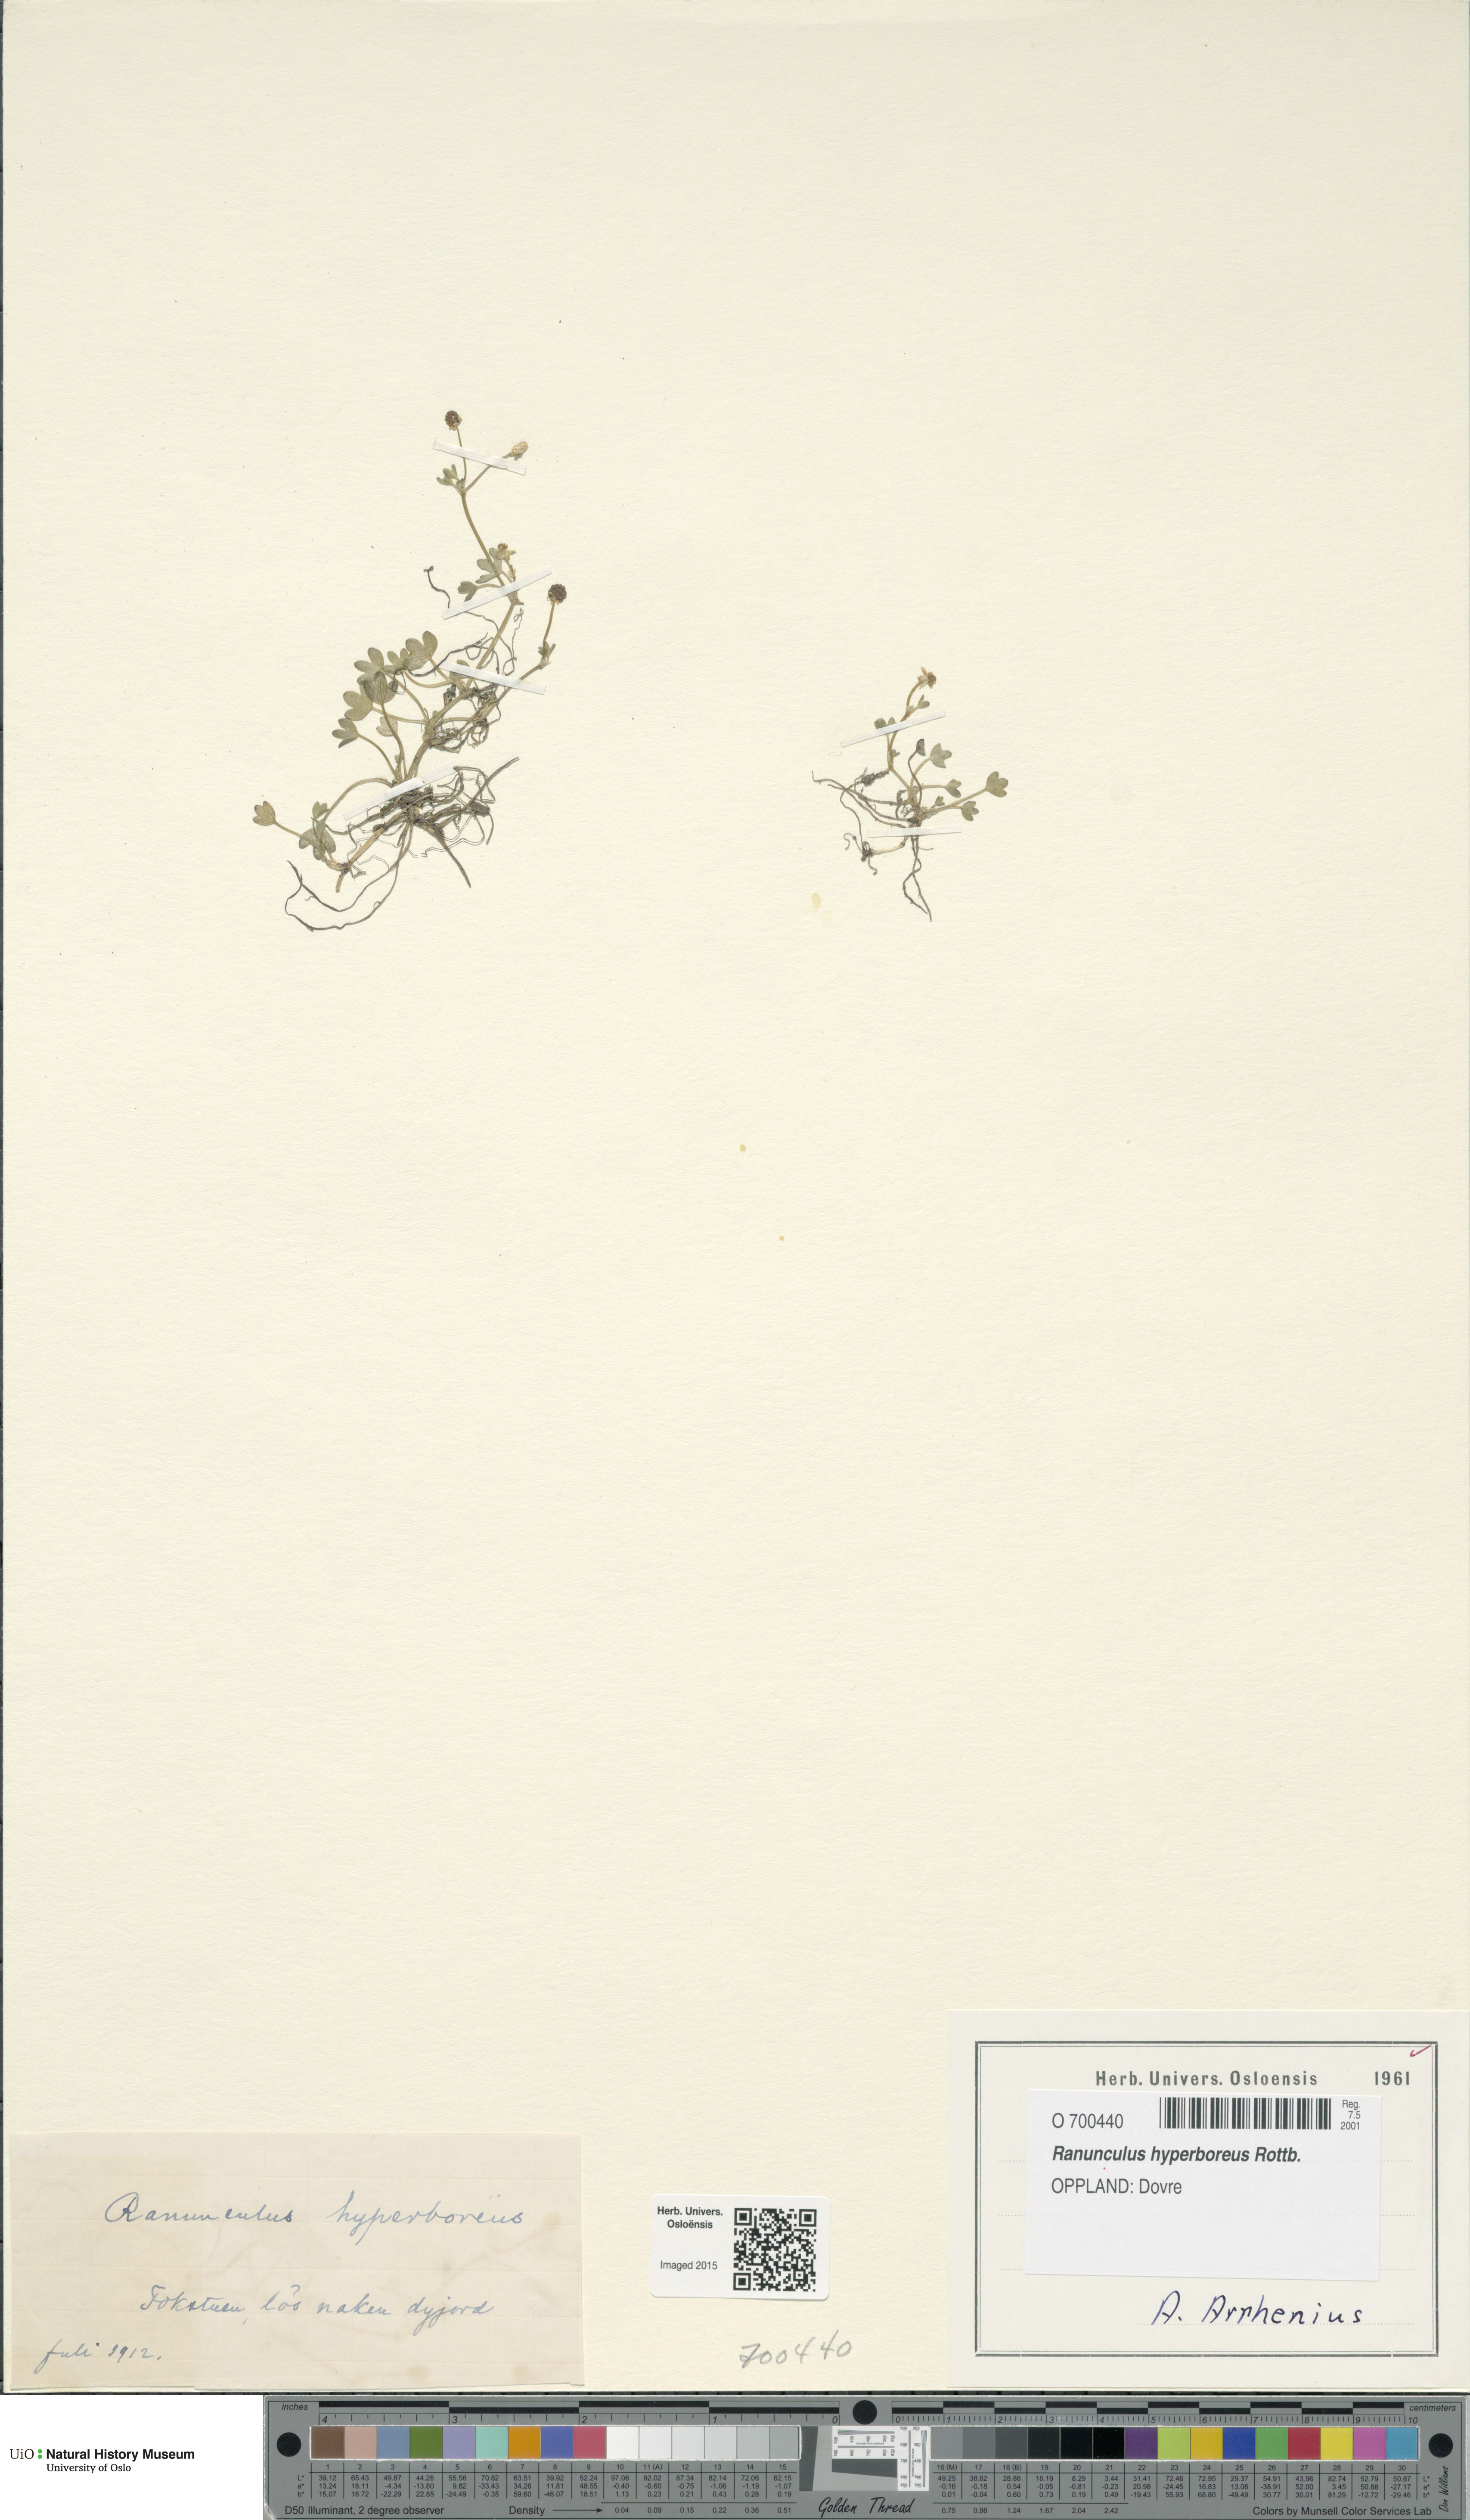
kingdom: Plantae
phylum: Tracheophyta
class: Magnoliopsida
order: Ranunculales
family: Ranunculaceae
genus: Ranunculus
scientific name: Ranunculus hyperboreus
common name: Arctic buttercup
